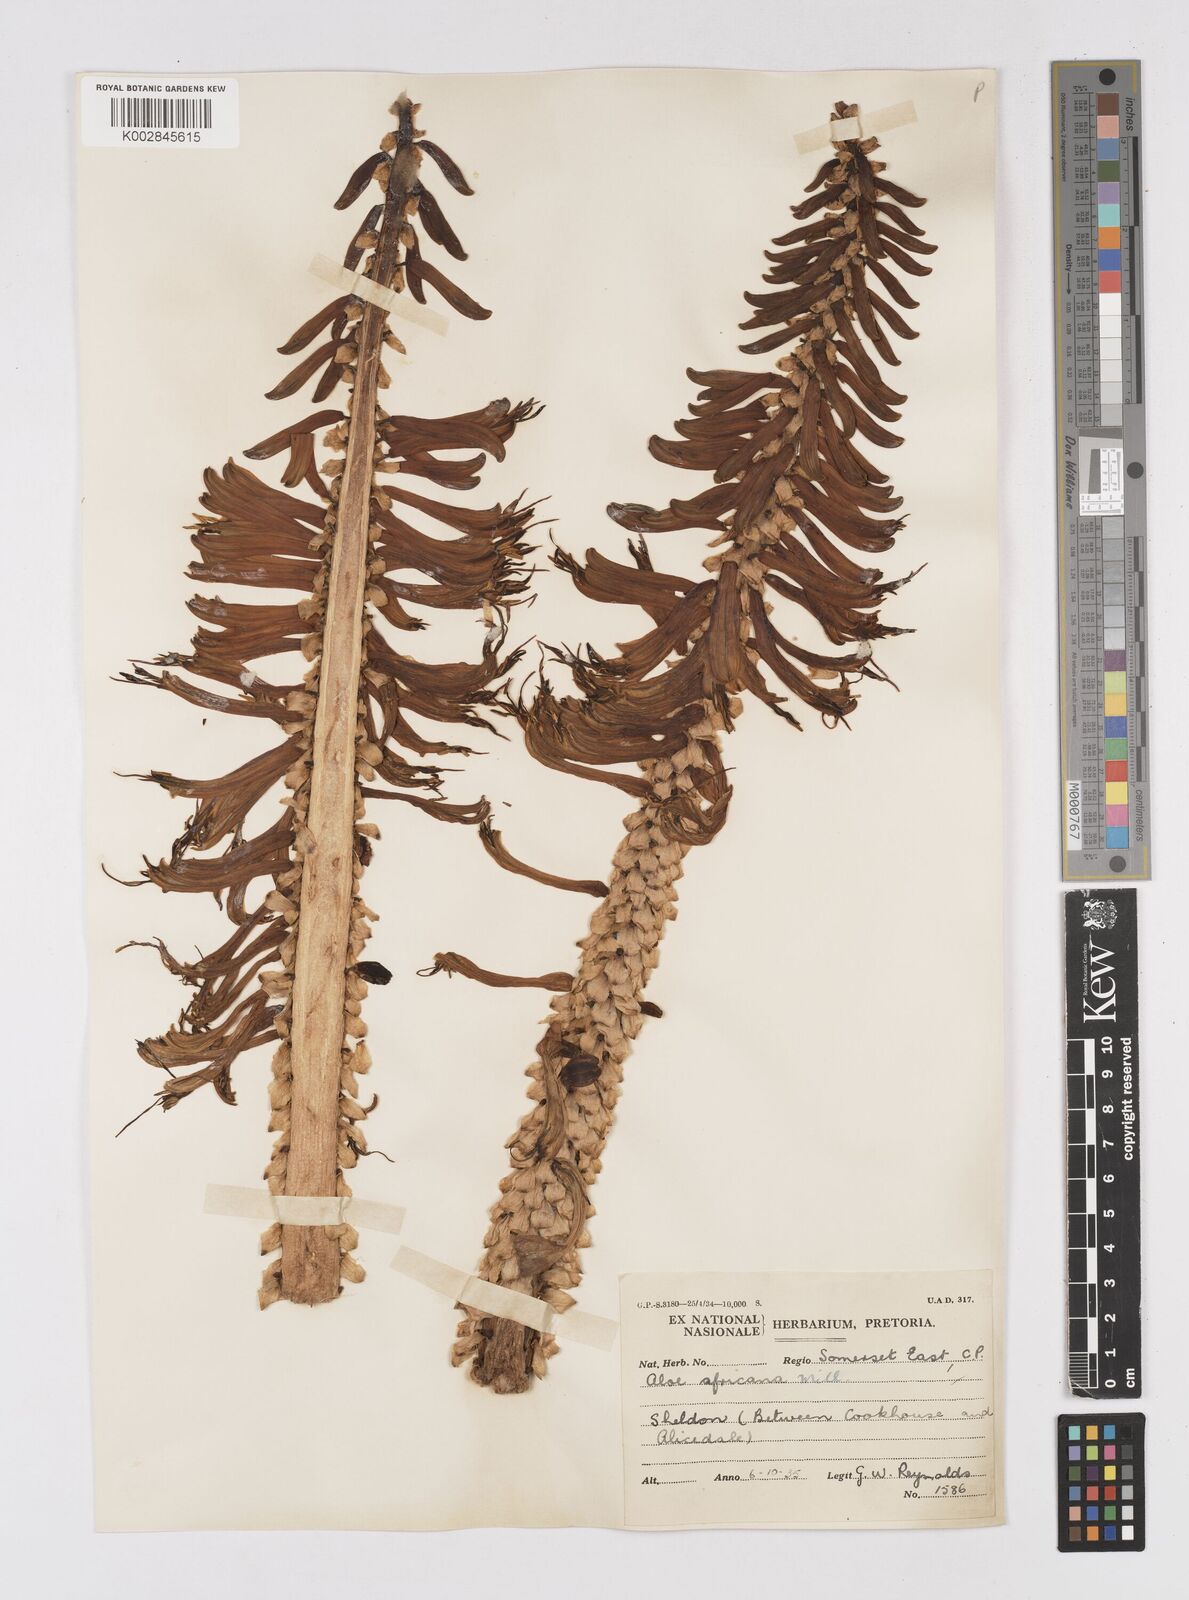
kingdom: Plantae
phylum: Tracheophyta
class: Liliopsida
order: Asparagales
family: Asphodelaceae
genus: Aloe
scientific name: Aloe africana
